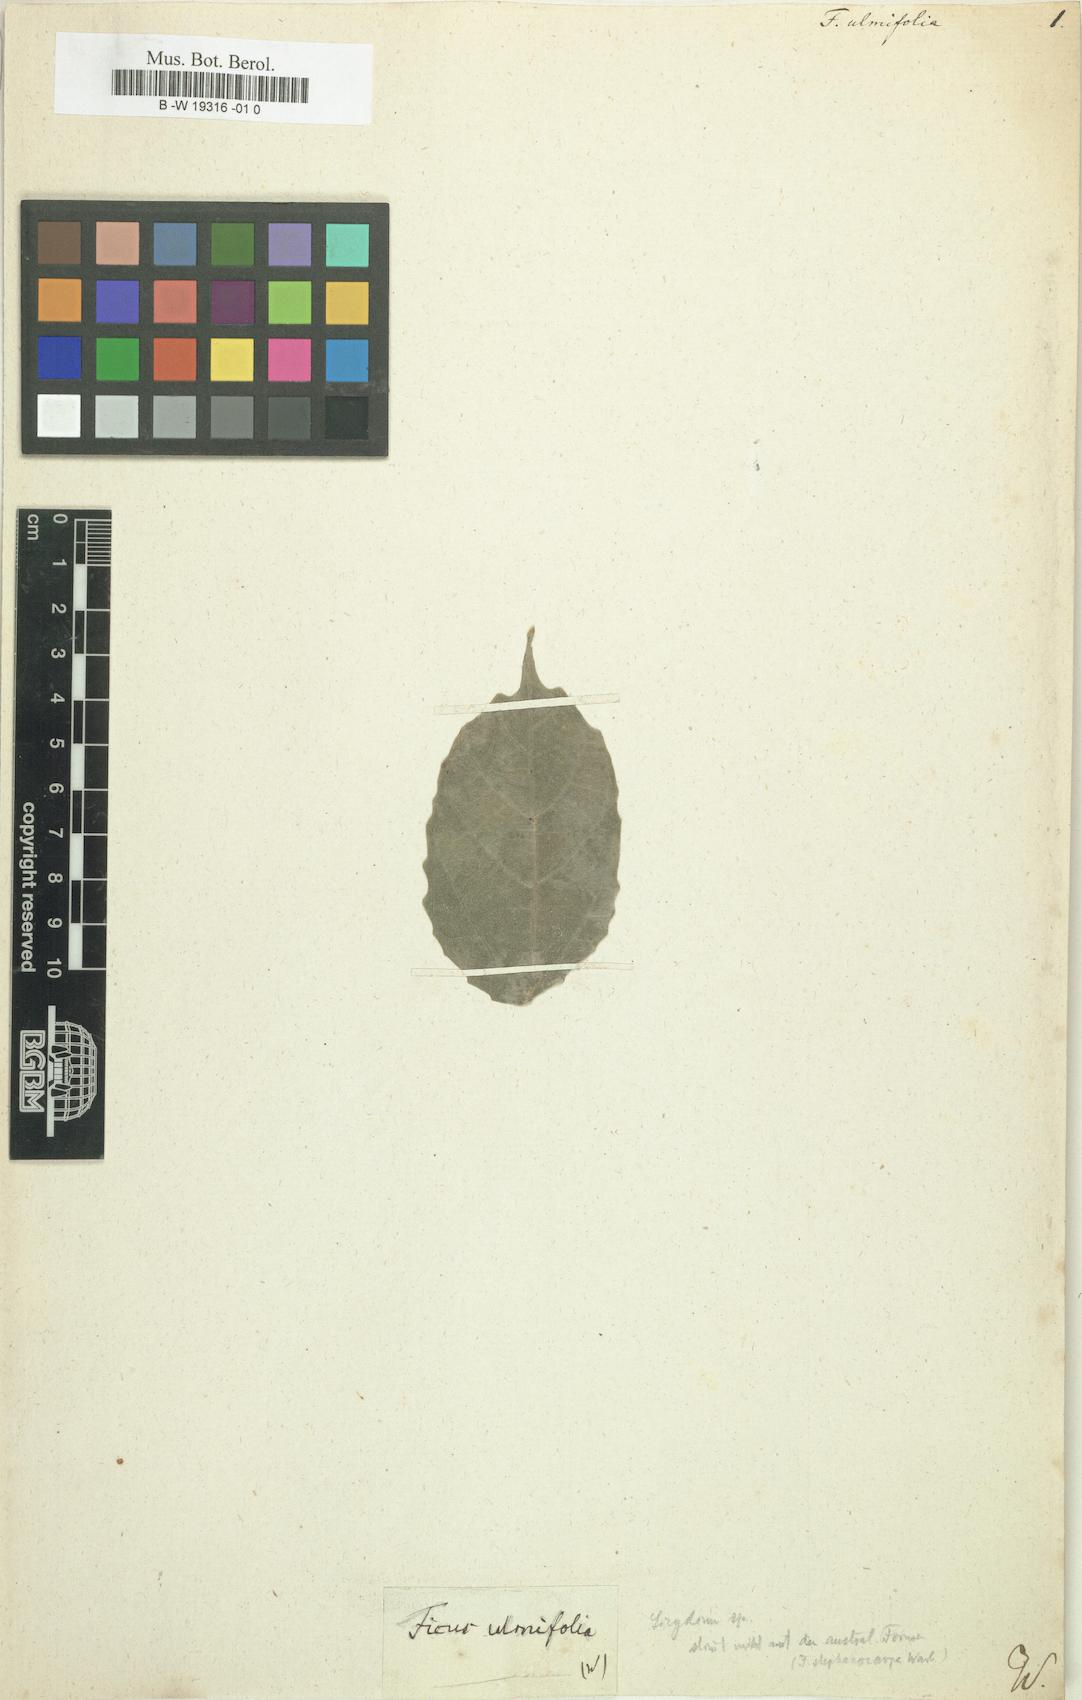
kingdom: Plantae
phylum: Tracheophyta
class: Magnoliopsida
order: Rosales
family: Moraceae
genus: Ficus
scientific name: Ficus ulmifolia
